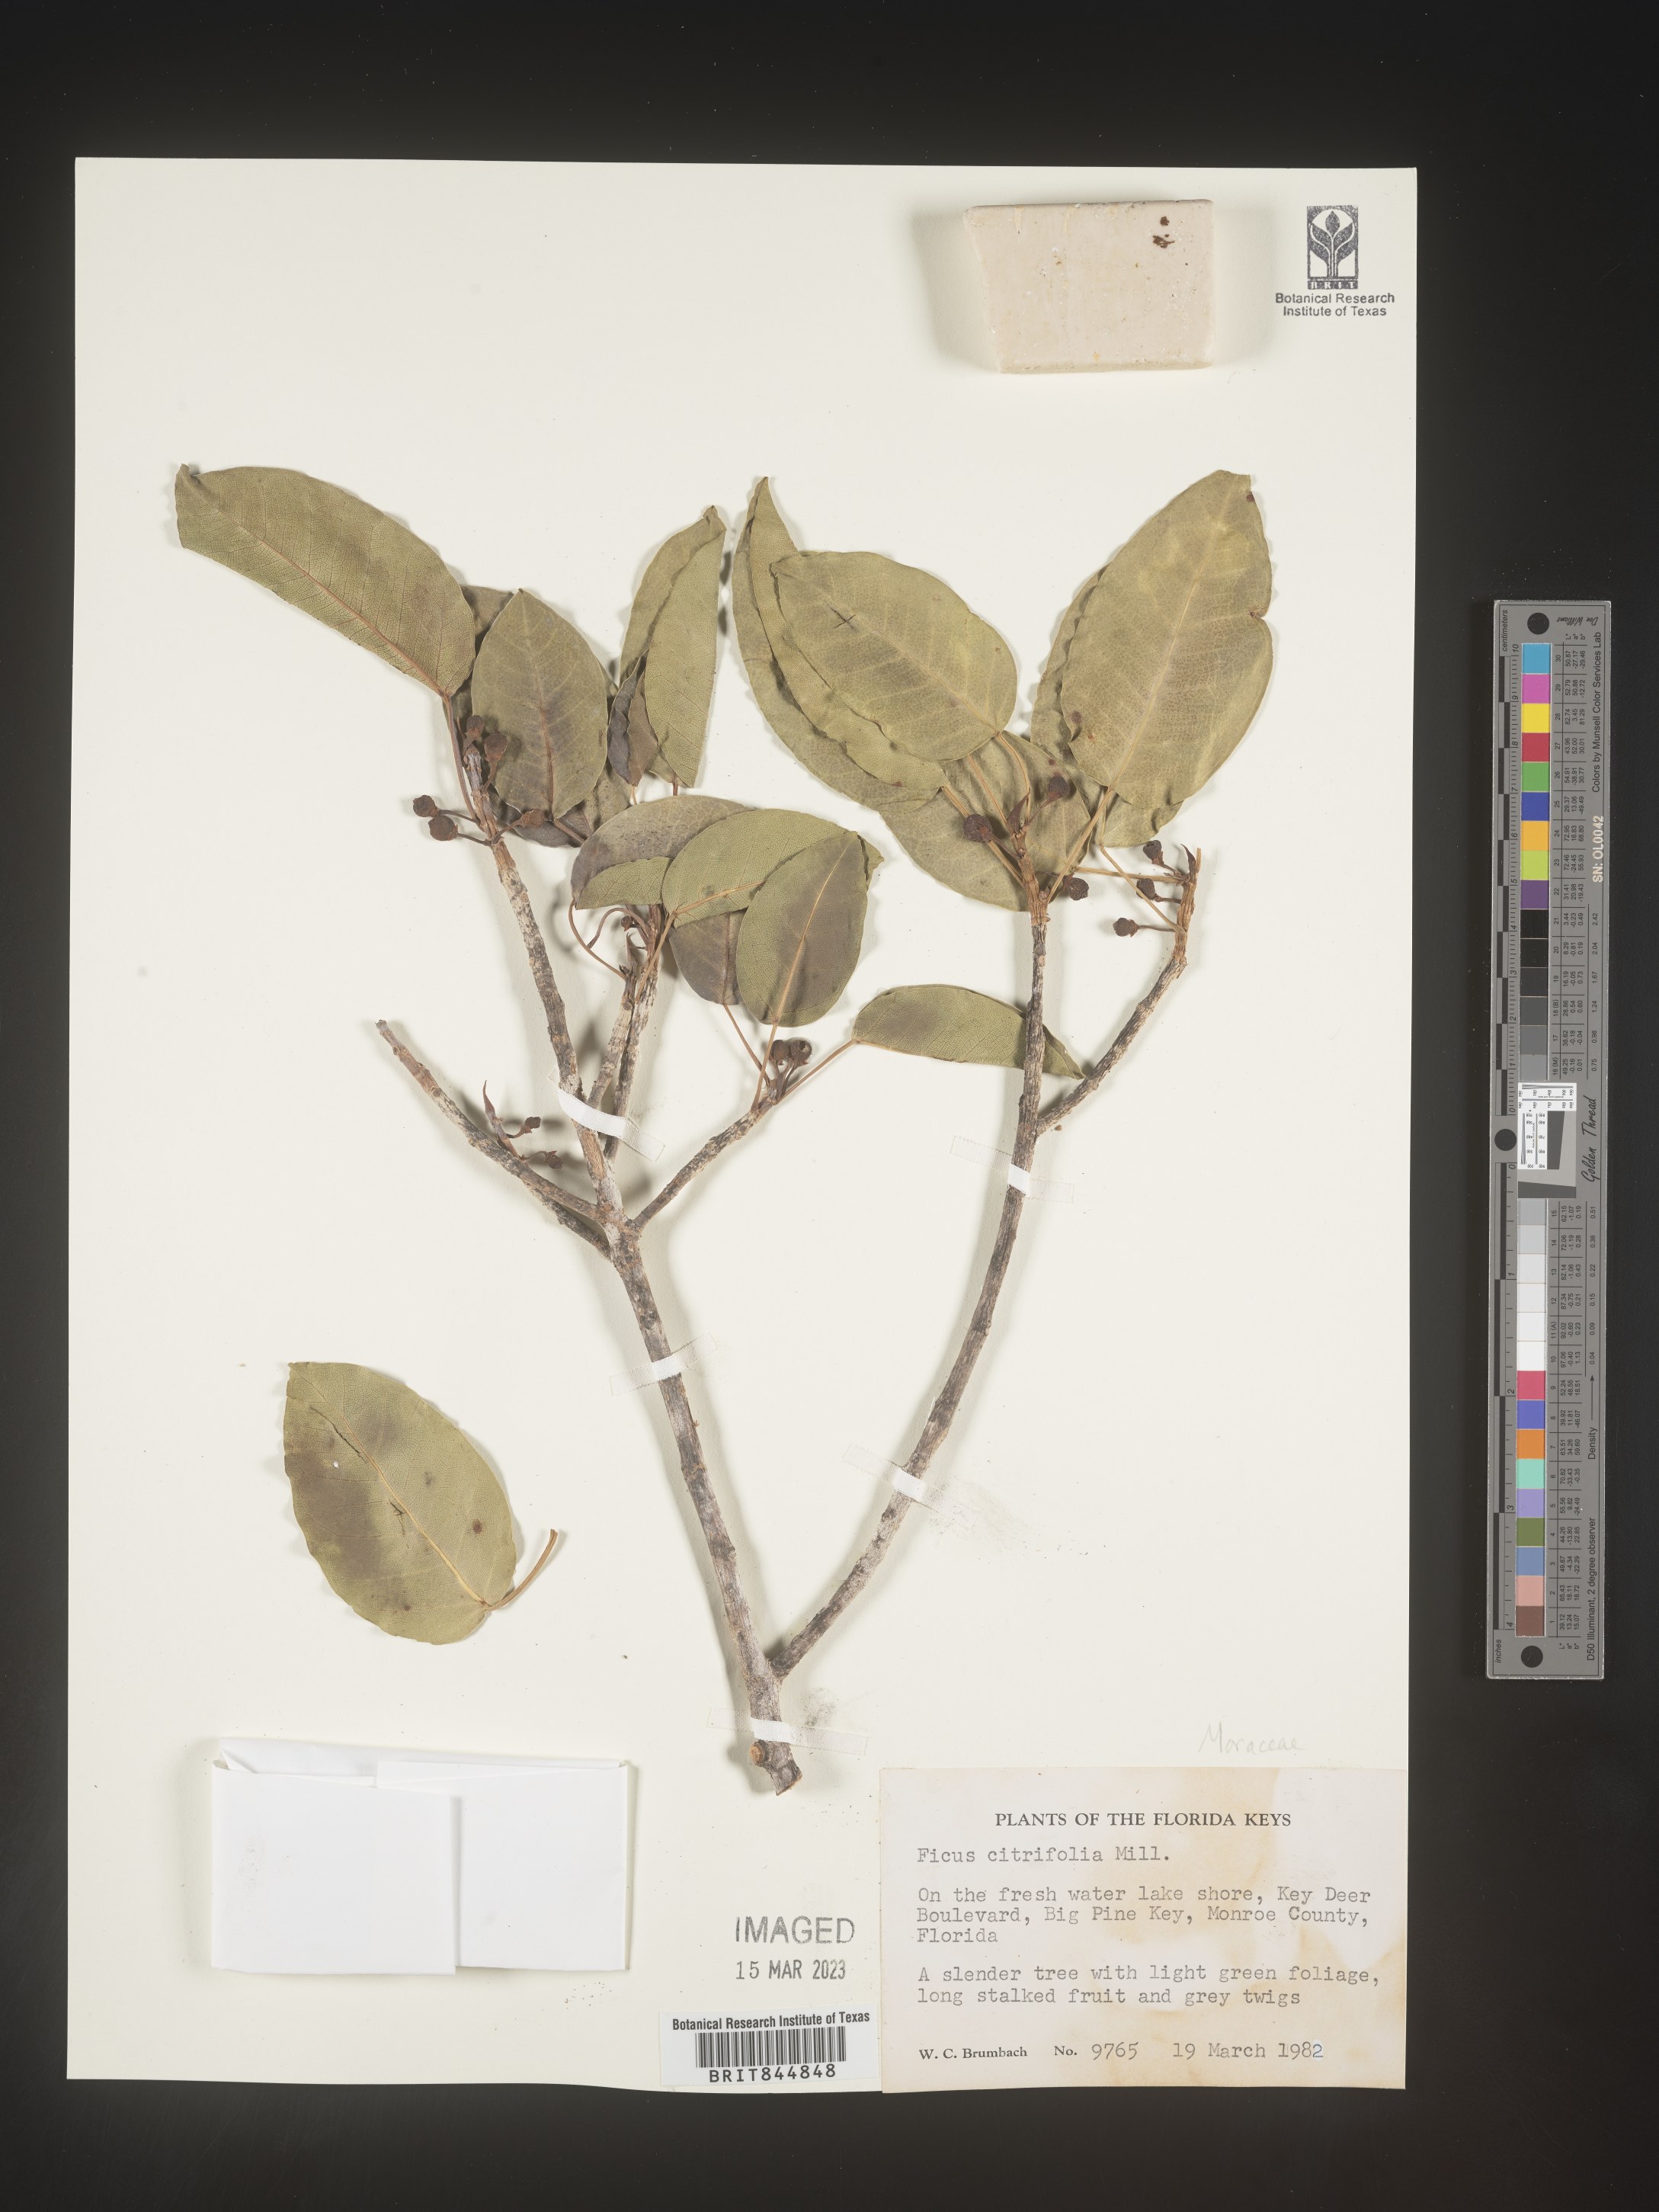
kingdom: Plantae
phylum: Tracheophyta
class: Magnoliopsida
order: Rosales
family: Moraceae
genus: Ficus
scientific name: Ficus
